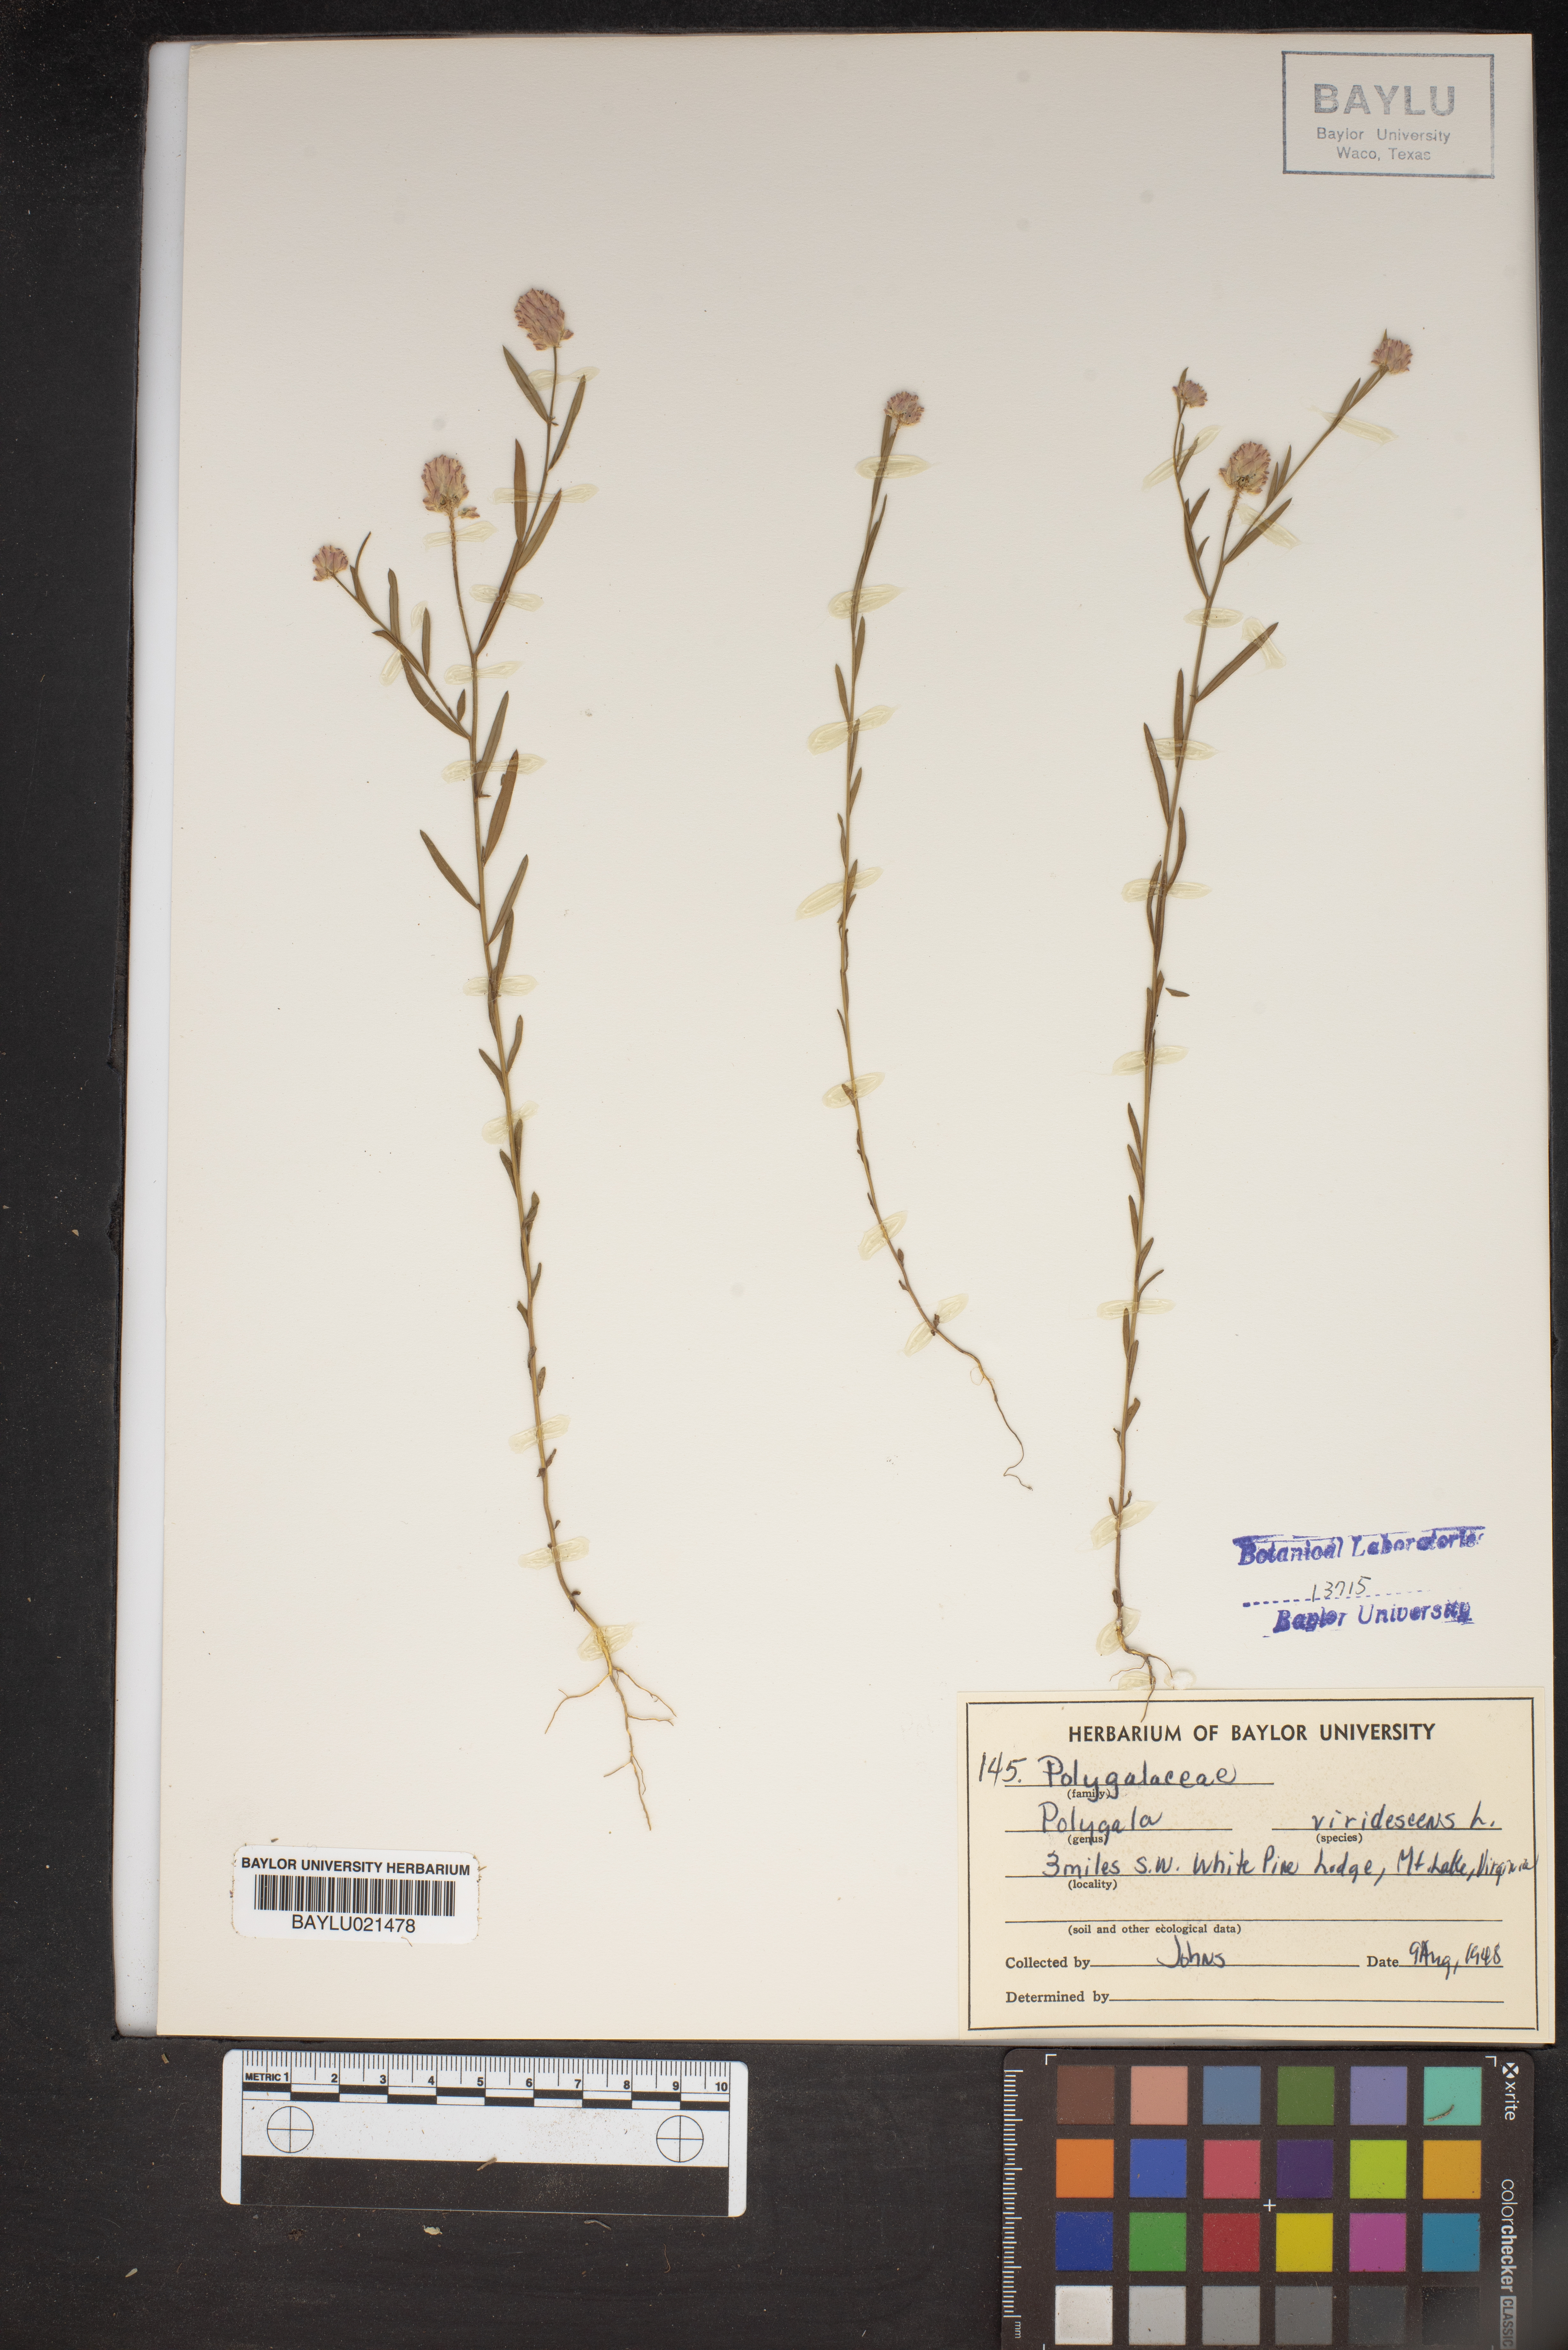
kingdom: Plantae
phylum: Tracheophyta
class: Magnoliopsida
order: Fabales
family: Polygalaceae
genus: Polygala
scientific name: Polygala sanguinea
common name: Blood milkwort
